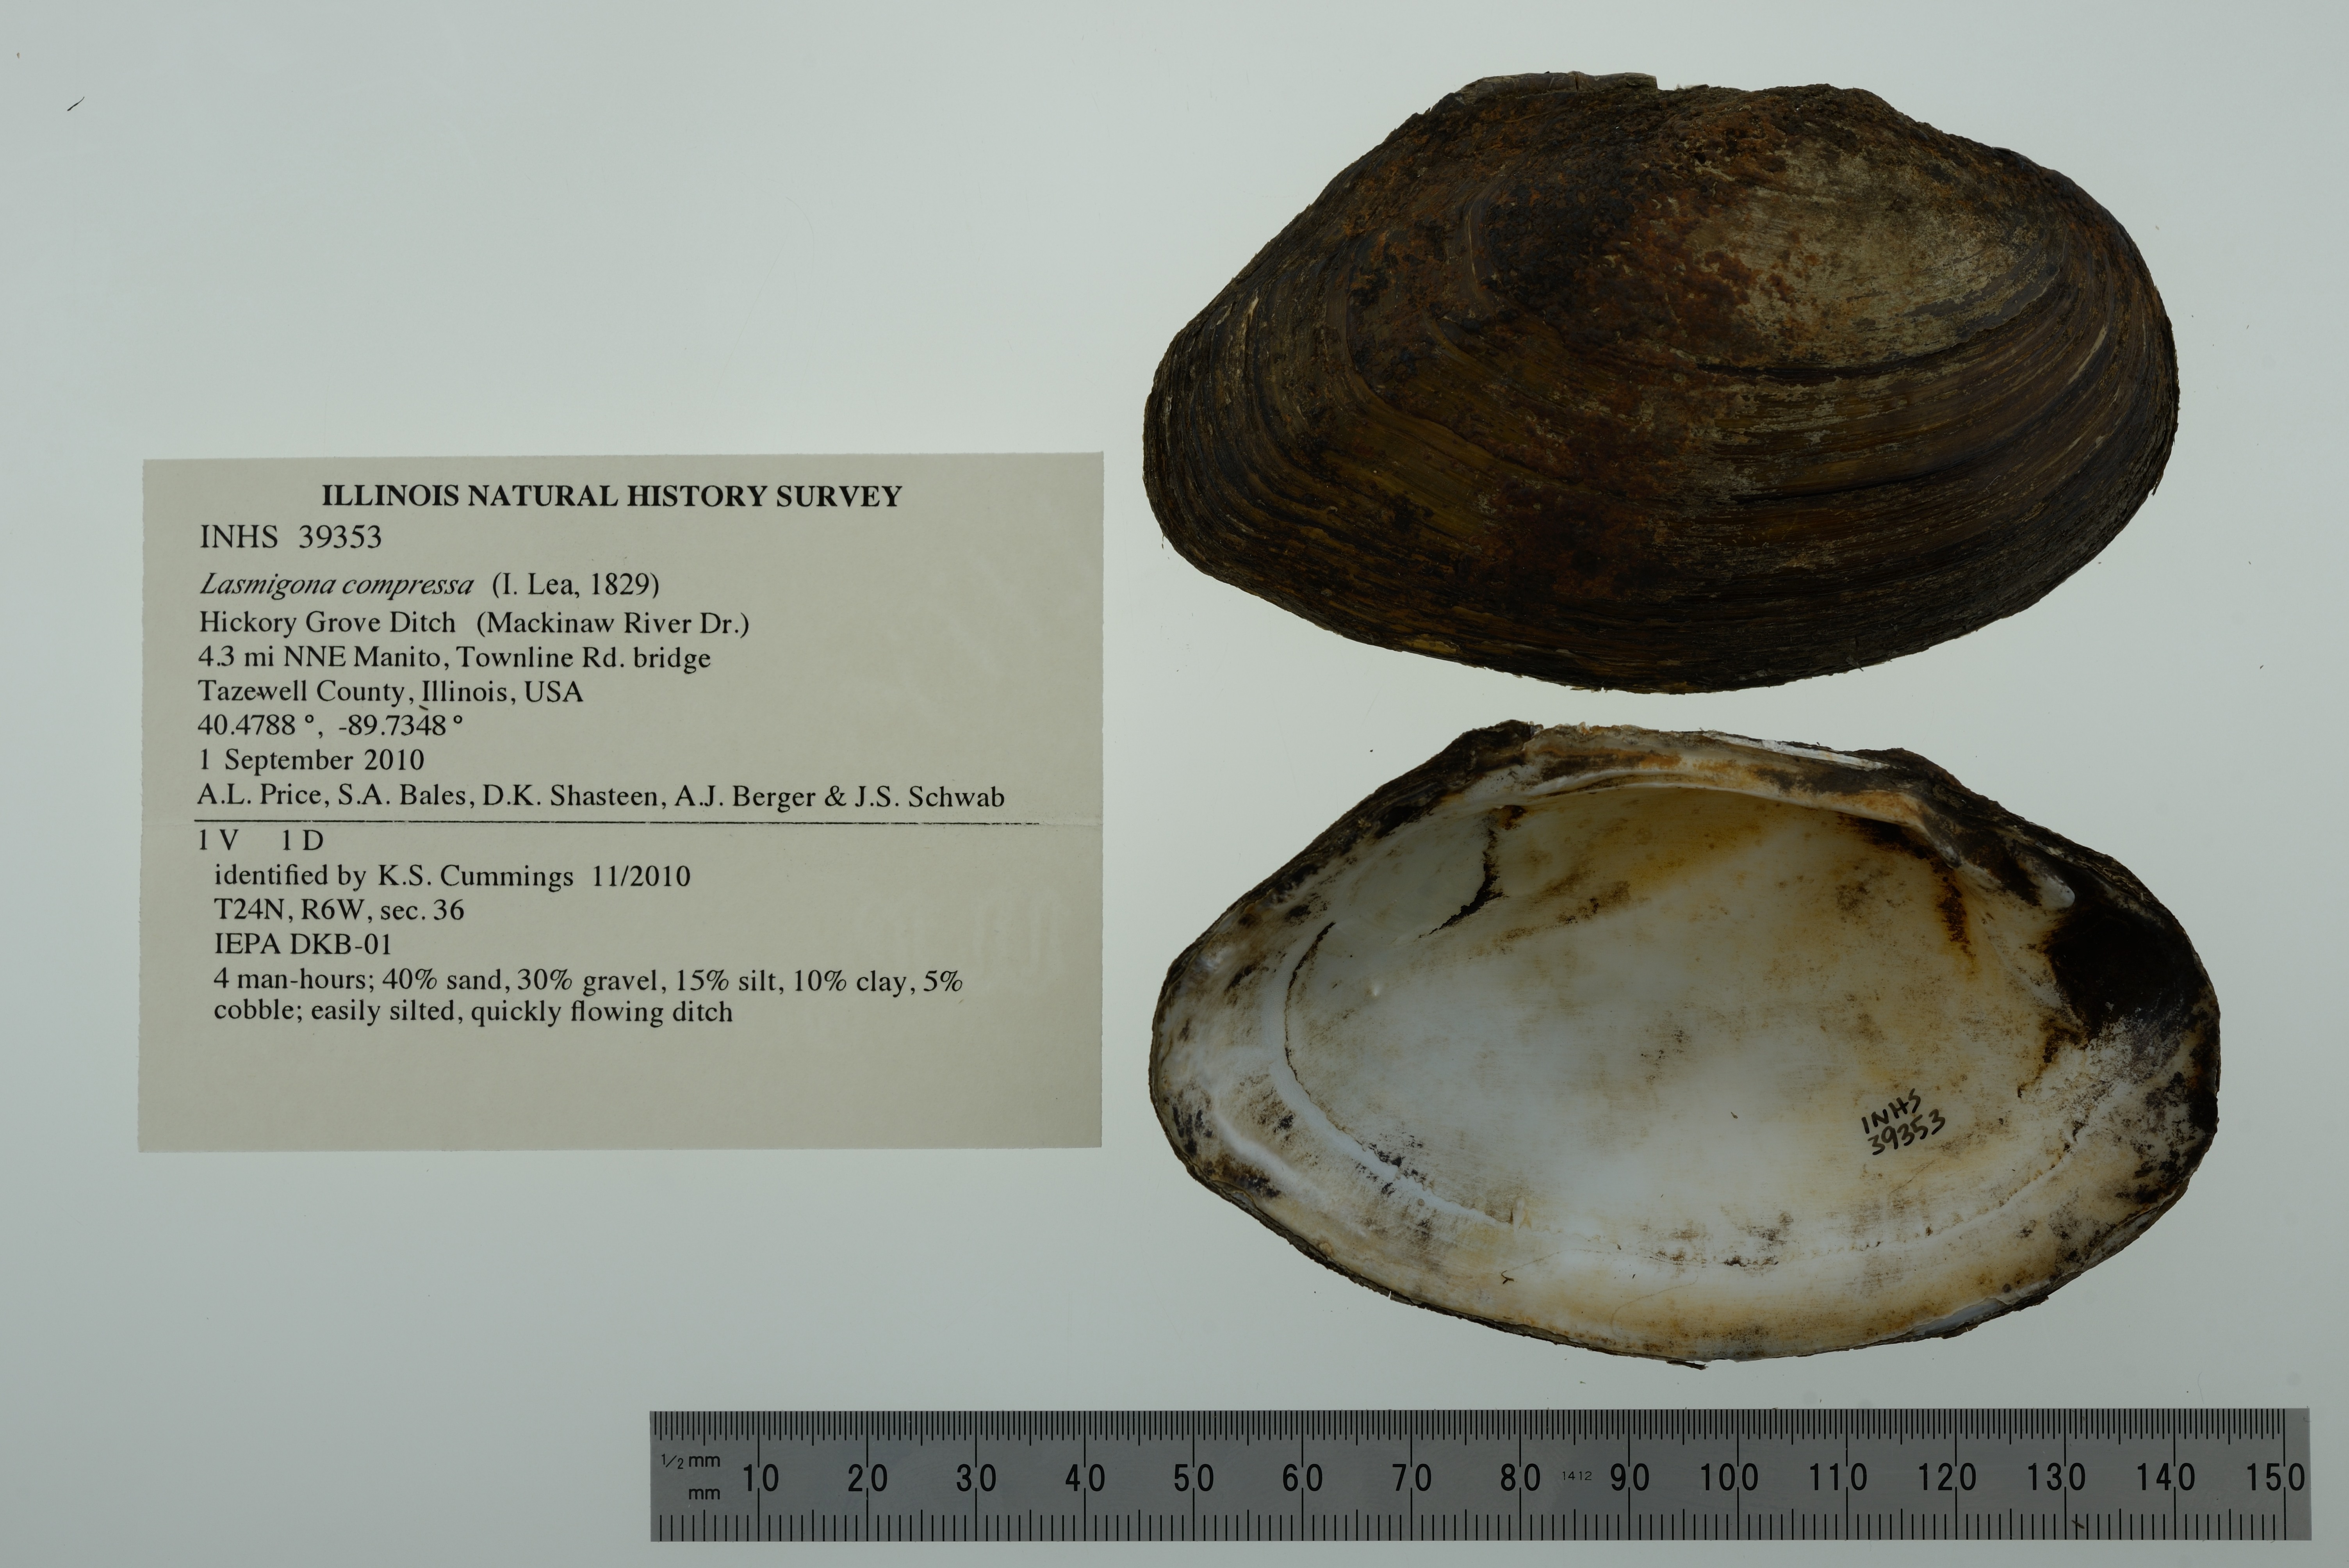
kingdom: Animalia
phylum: Mollusca
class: Bivalvia
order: Unionida
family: Unionidae
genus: Lasmigona
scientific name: Lasmigona compressa
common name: Creek heelsplitter
